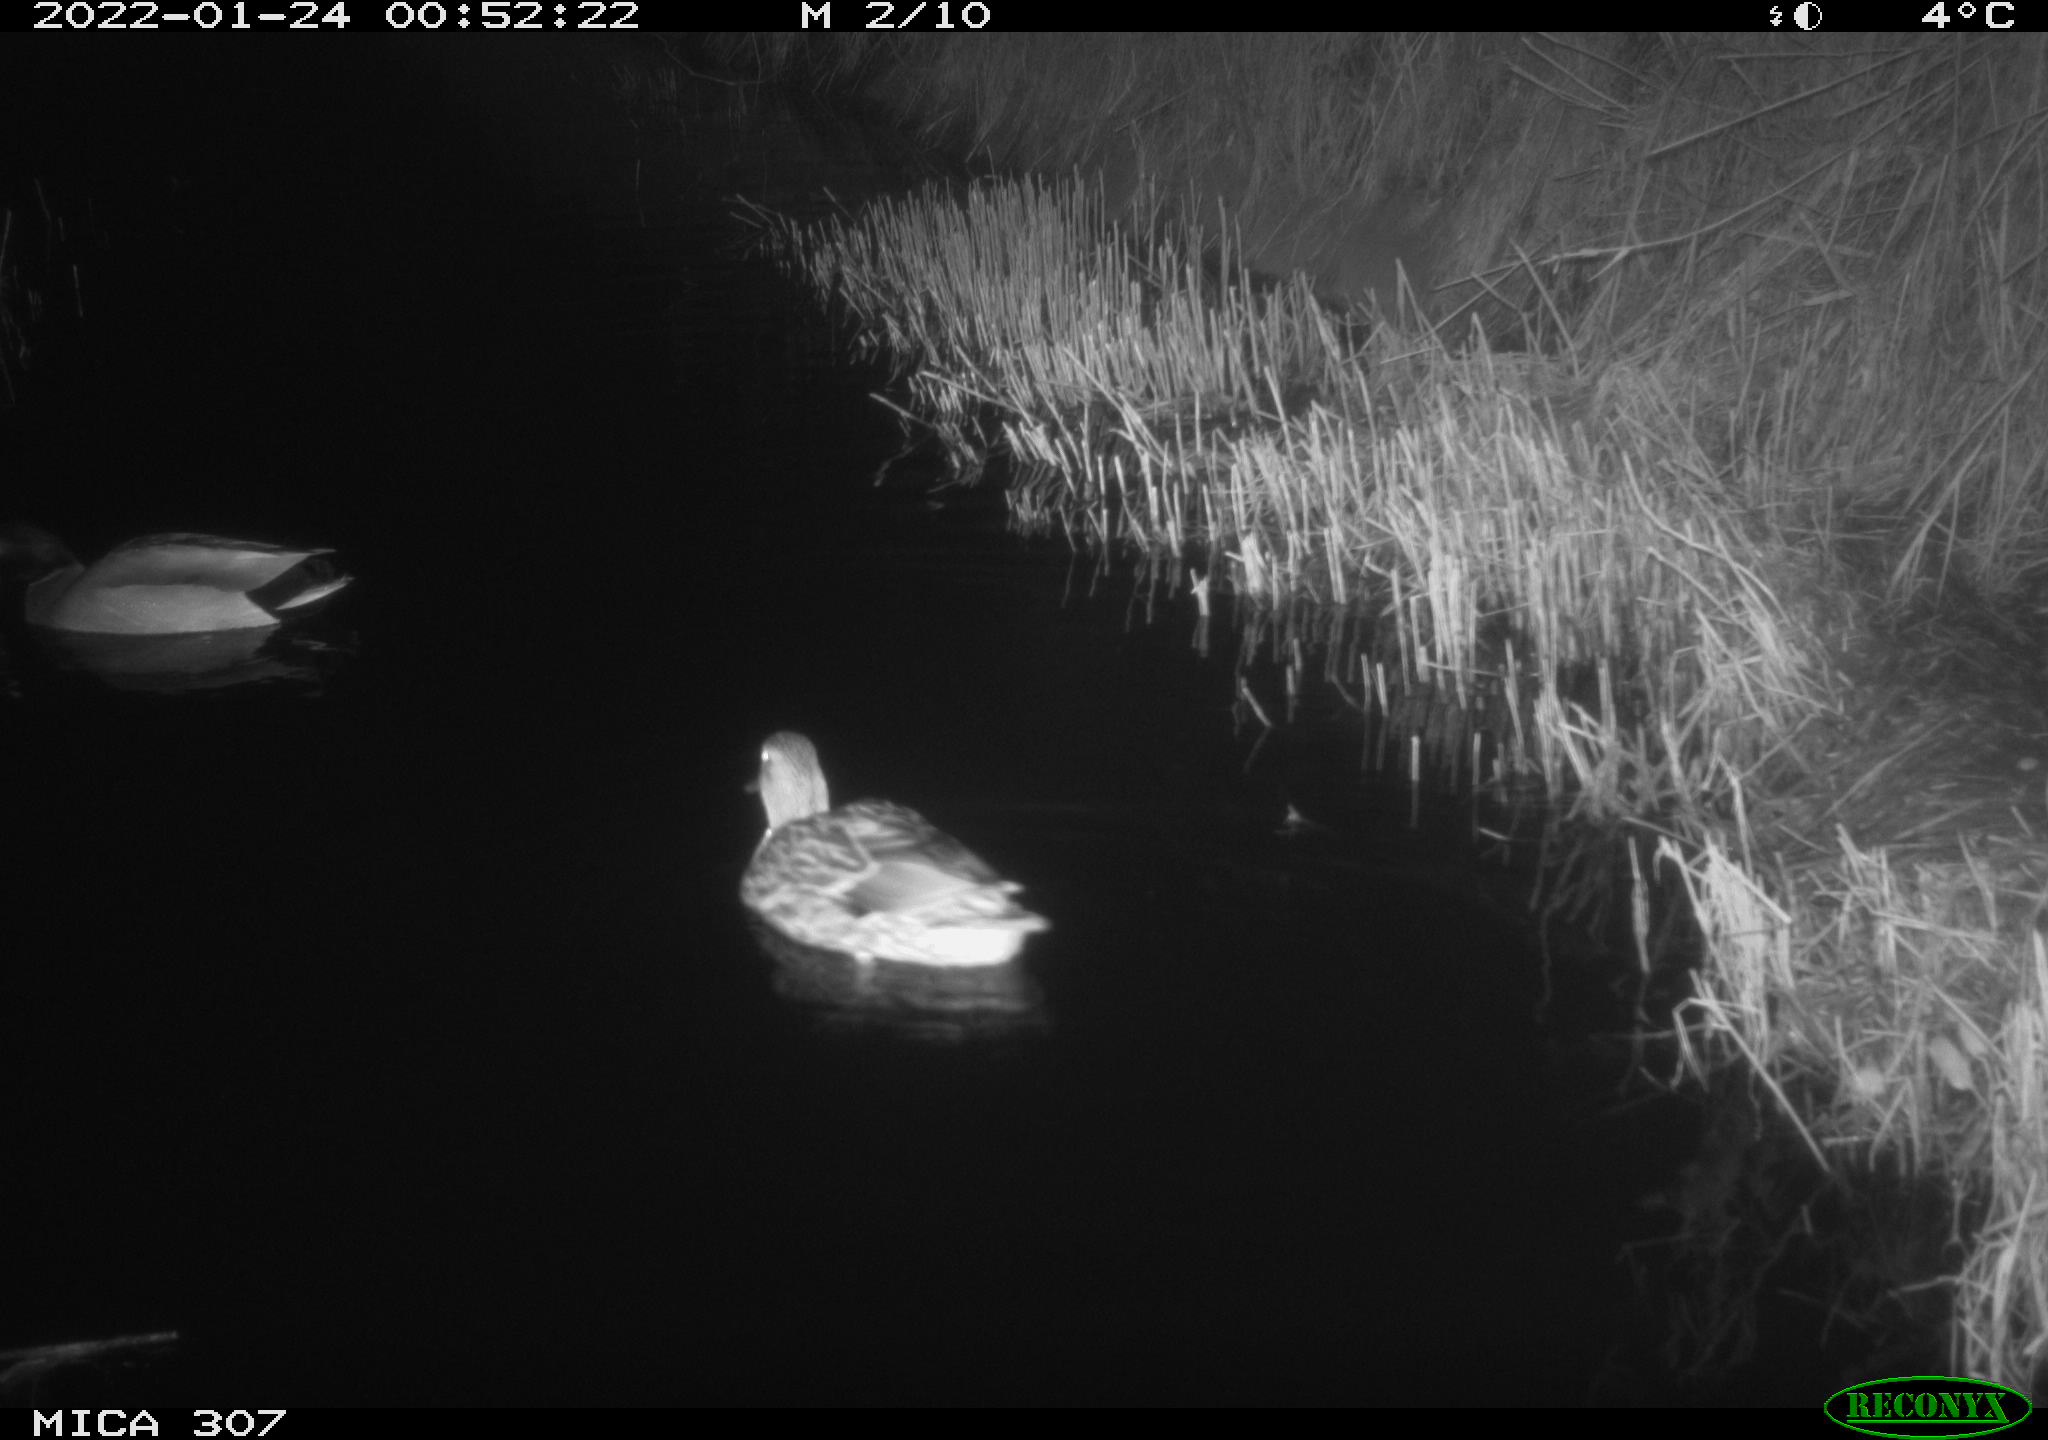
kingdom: Animalia
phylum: Chordata
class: Aves
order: Anseriformes
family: Anatidae
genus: Anas
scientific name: Anas
